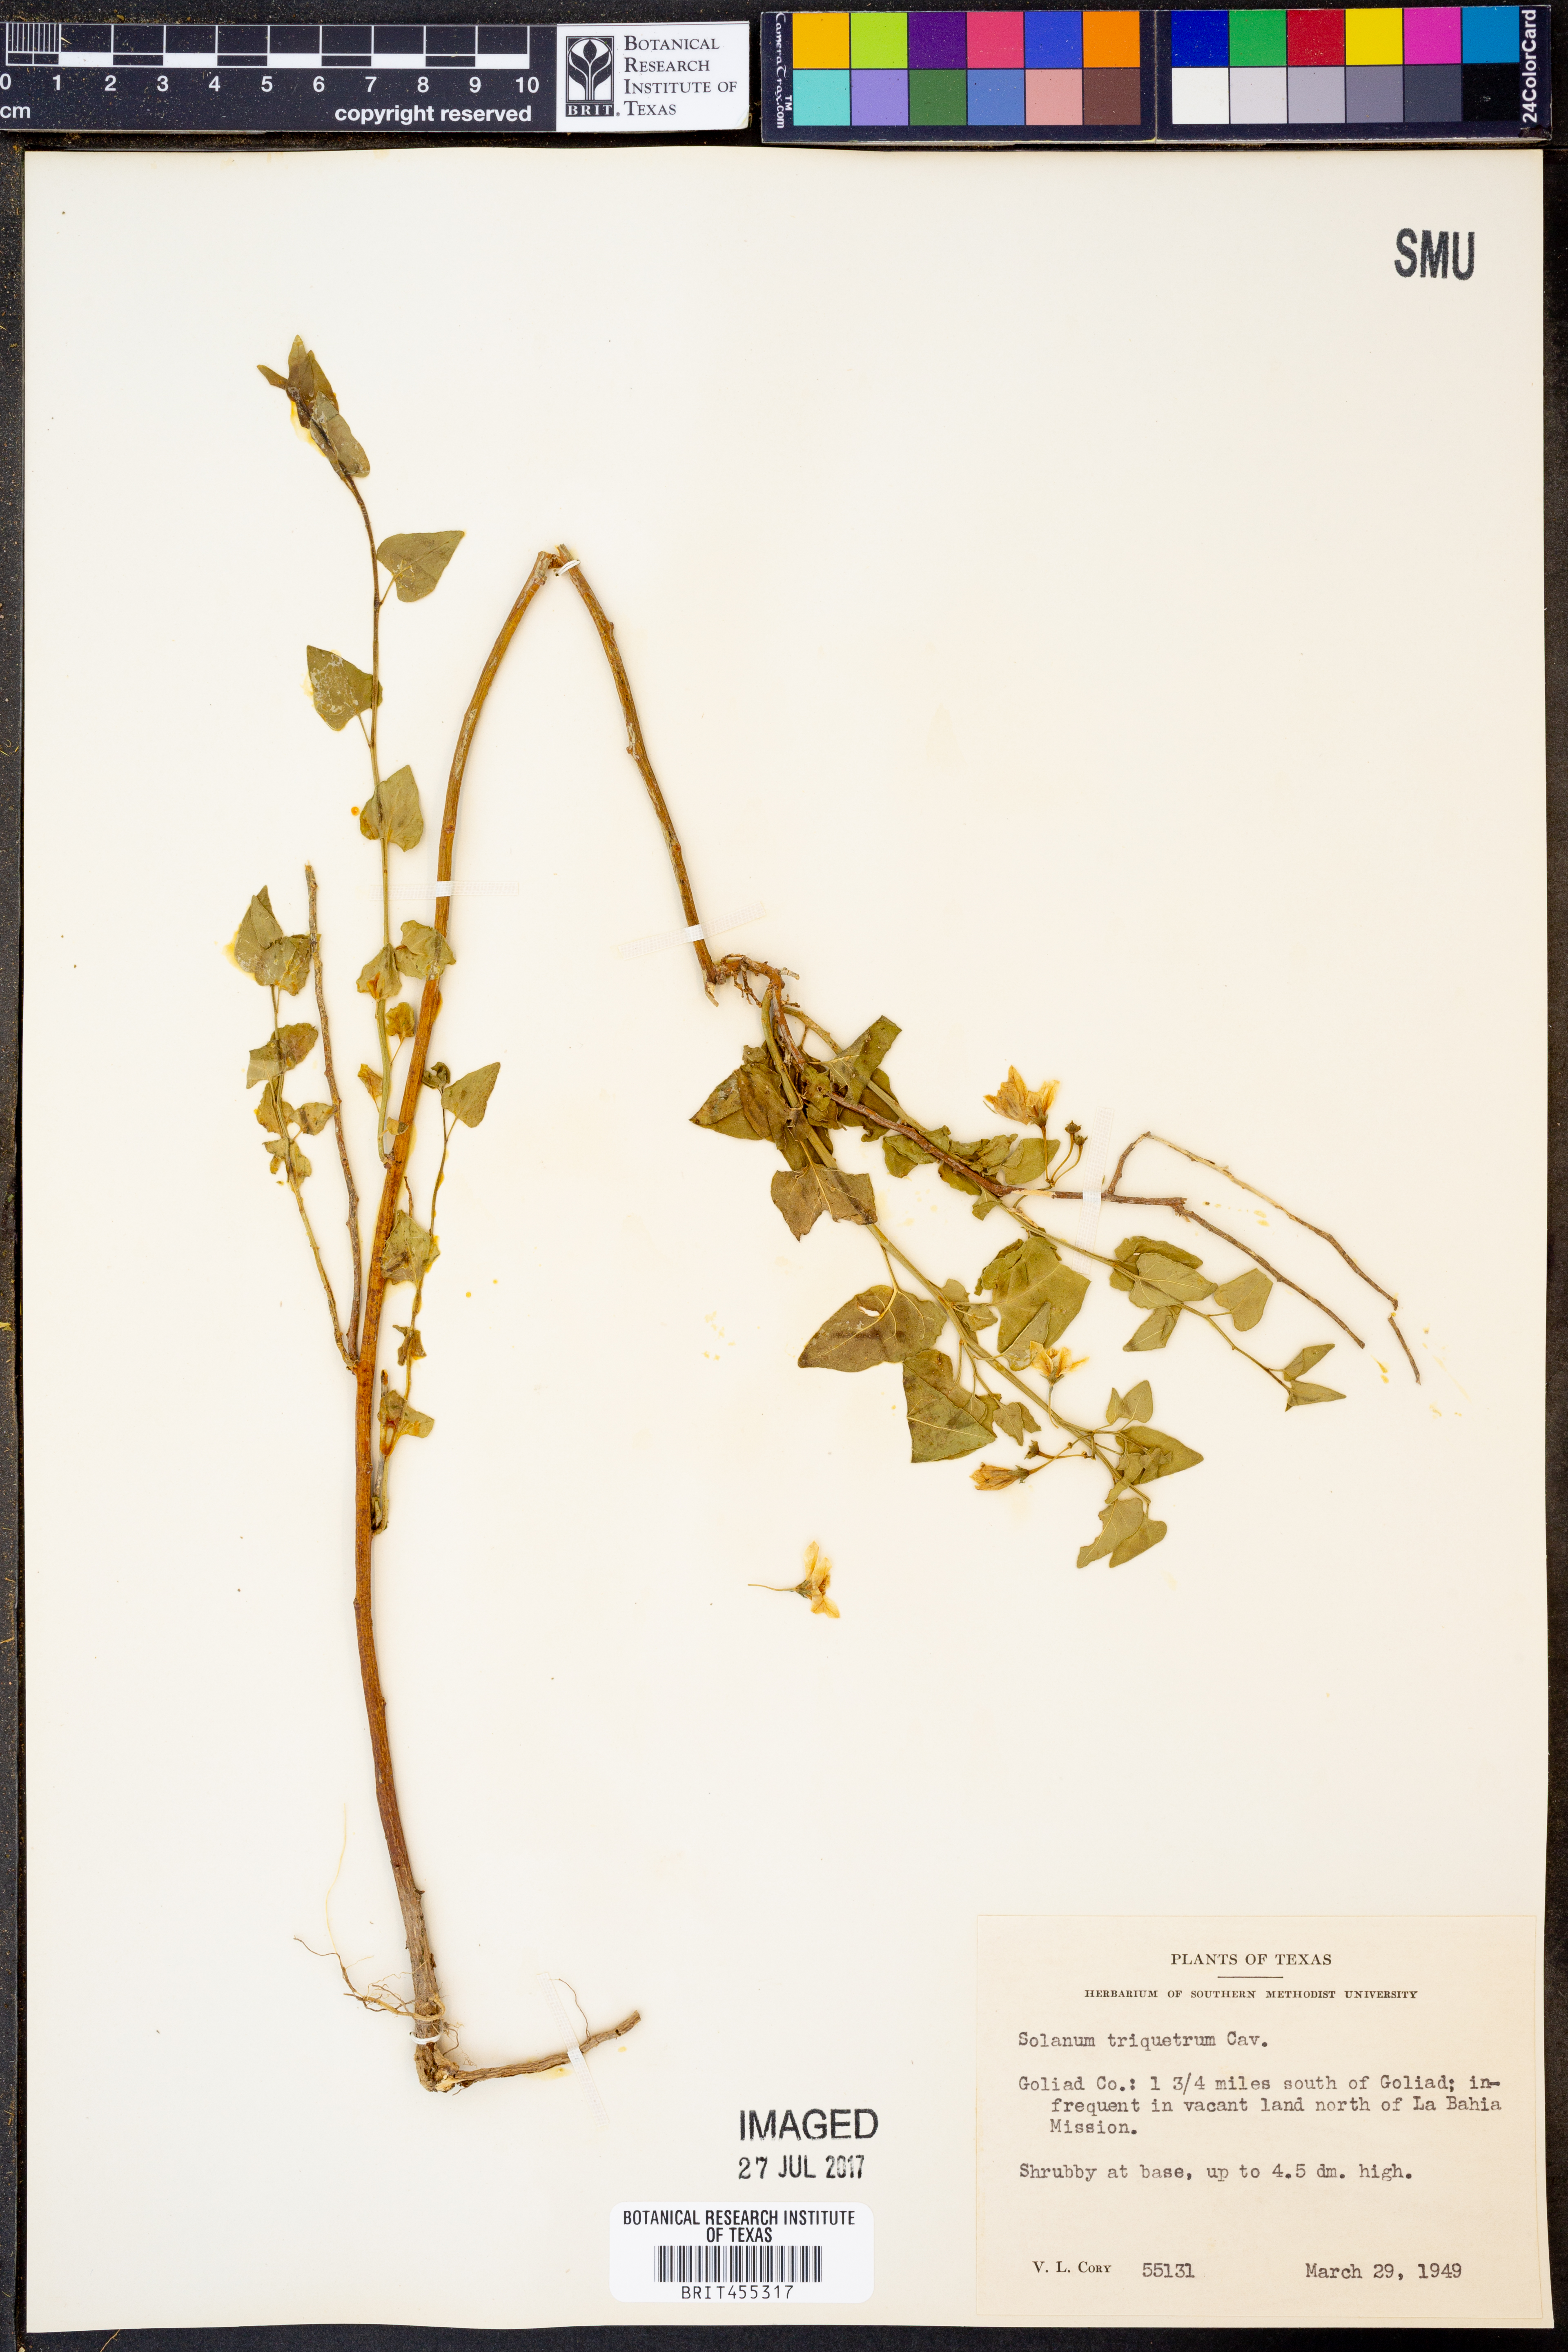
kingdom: Plantae
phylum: Tracheophyta
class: Magnoliopsida
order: Solanales
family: Solanaceae
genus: Solanum
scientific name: Solanum triquetrum
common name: Texas nightshade
